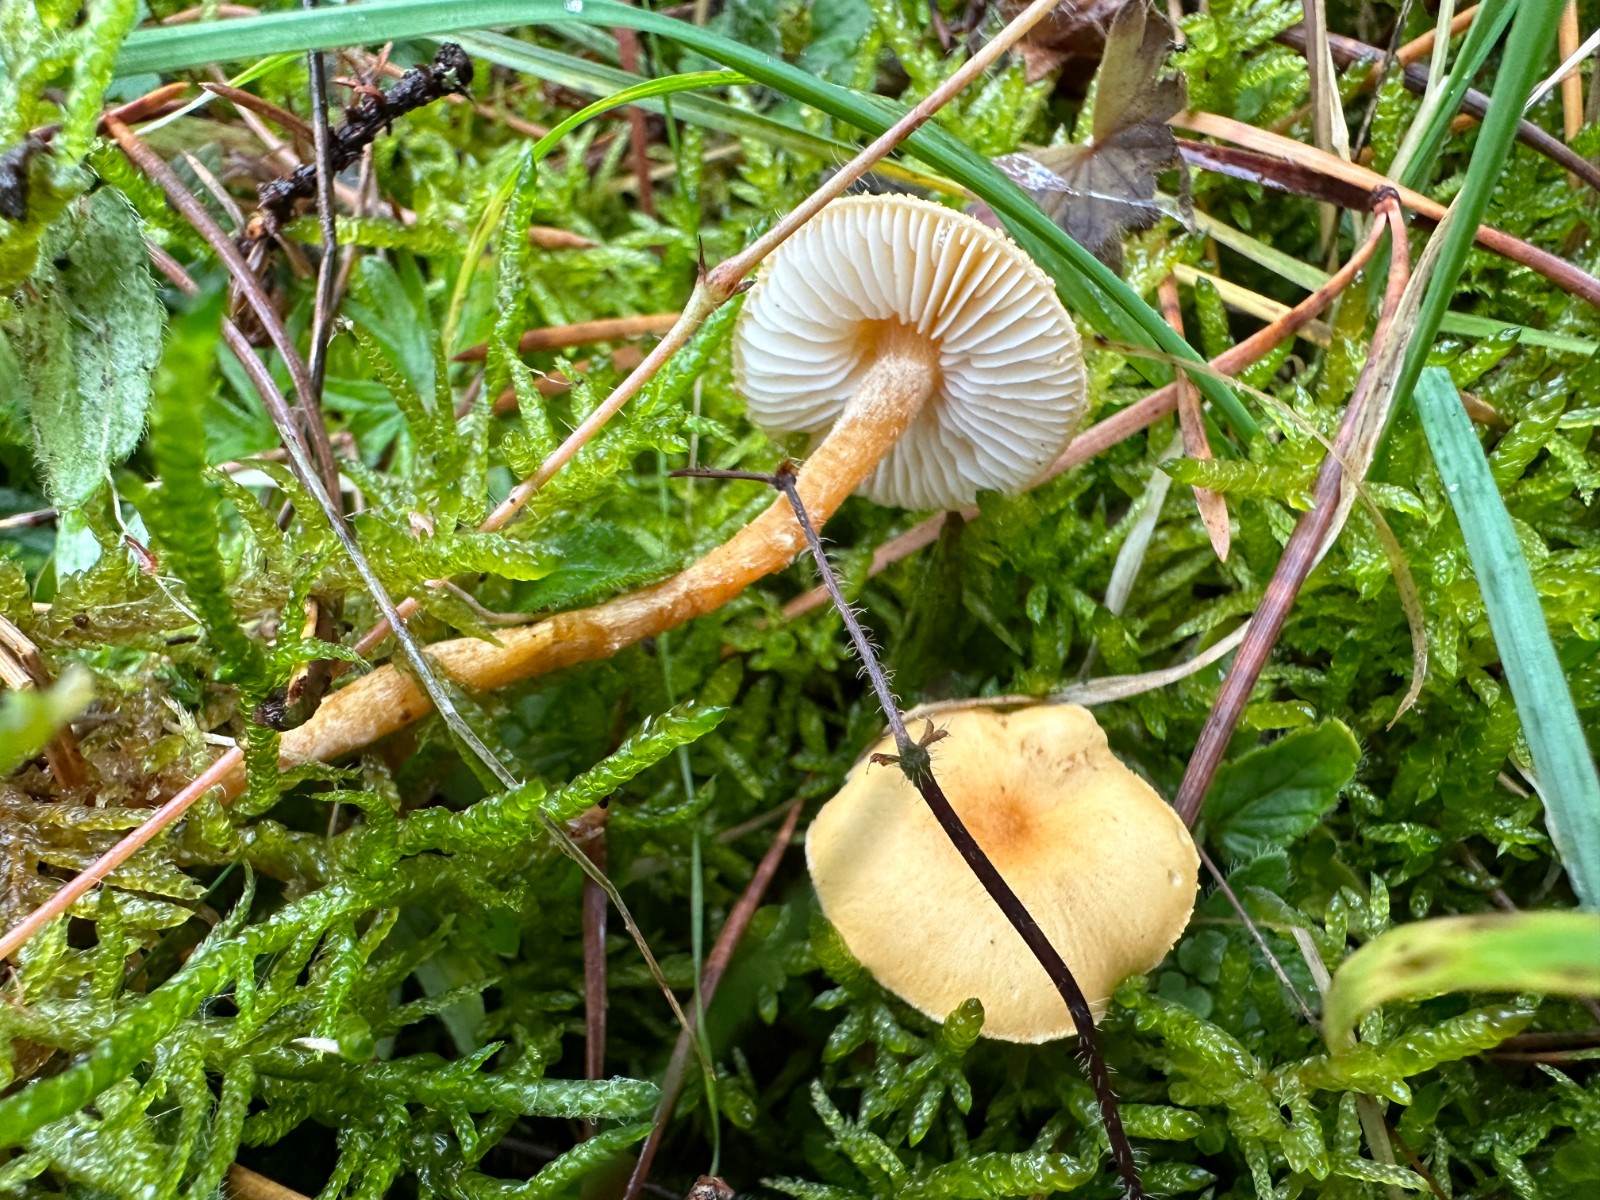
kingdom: Fungi
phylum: Basidiomycota
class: Agaricomycetes
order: Agaricales
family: Tricholomataceae
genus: Cystoderma
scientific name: Cystoderma amianthinum
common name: okkergul grynhat
